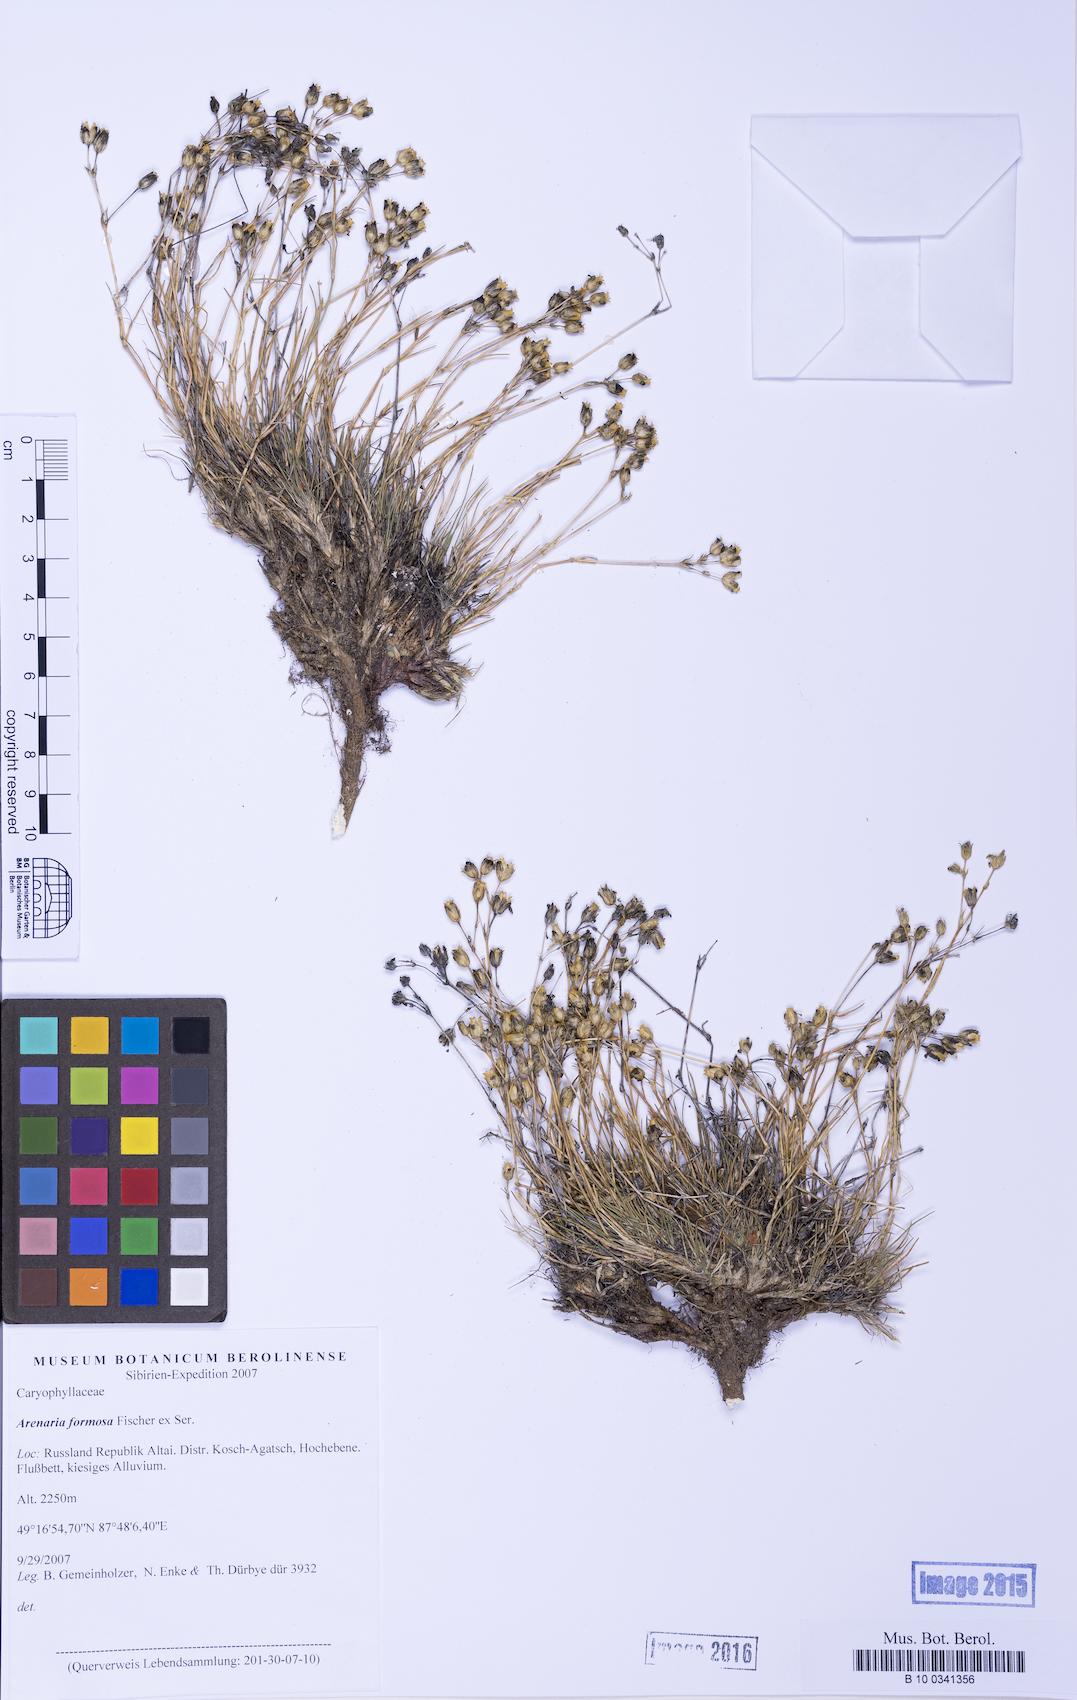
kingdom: Plantae
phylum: Tracheophyta
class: Magnoliopsida
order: Caryophyllales
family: Caryophyllaceae
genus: Eremogone
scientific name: Eremogone formosa
